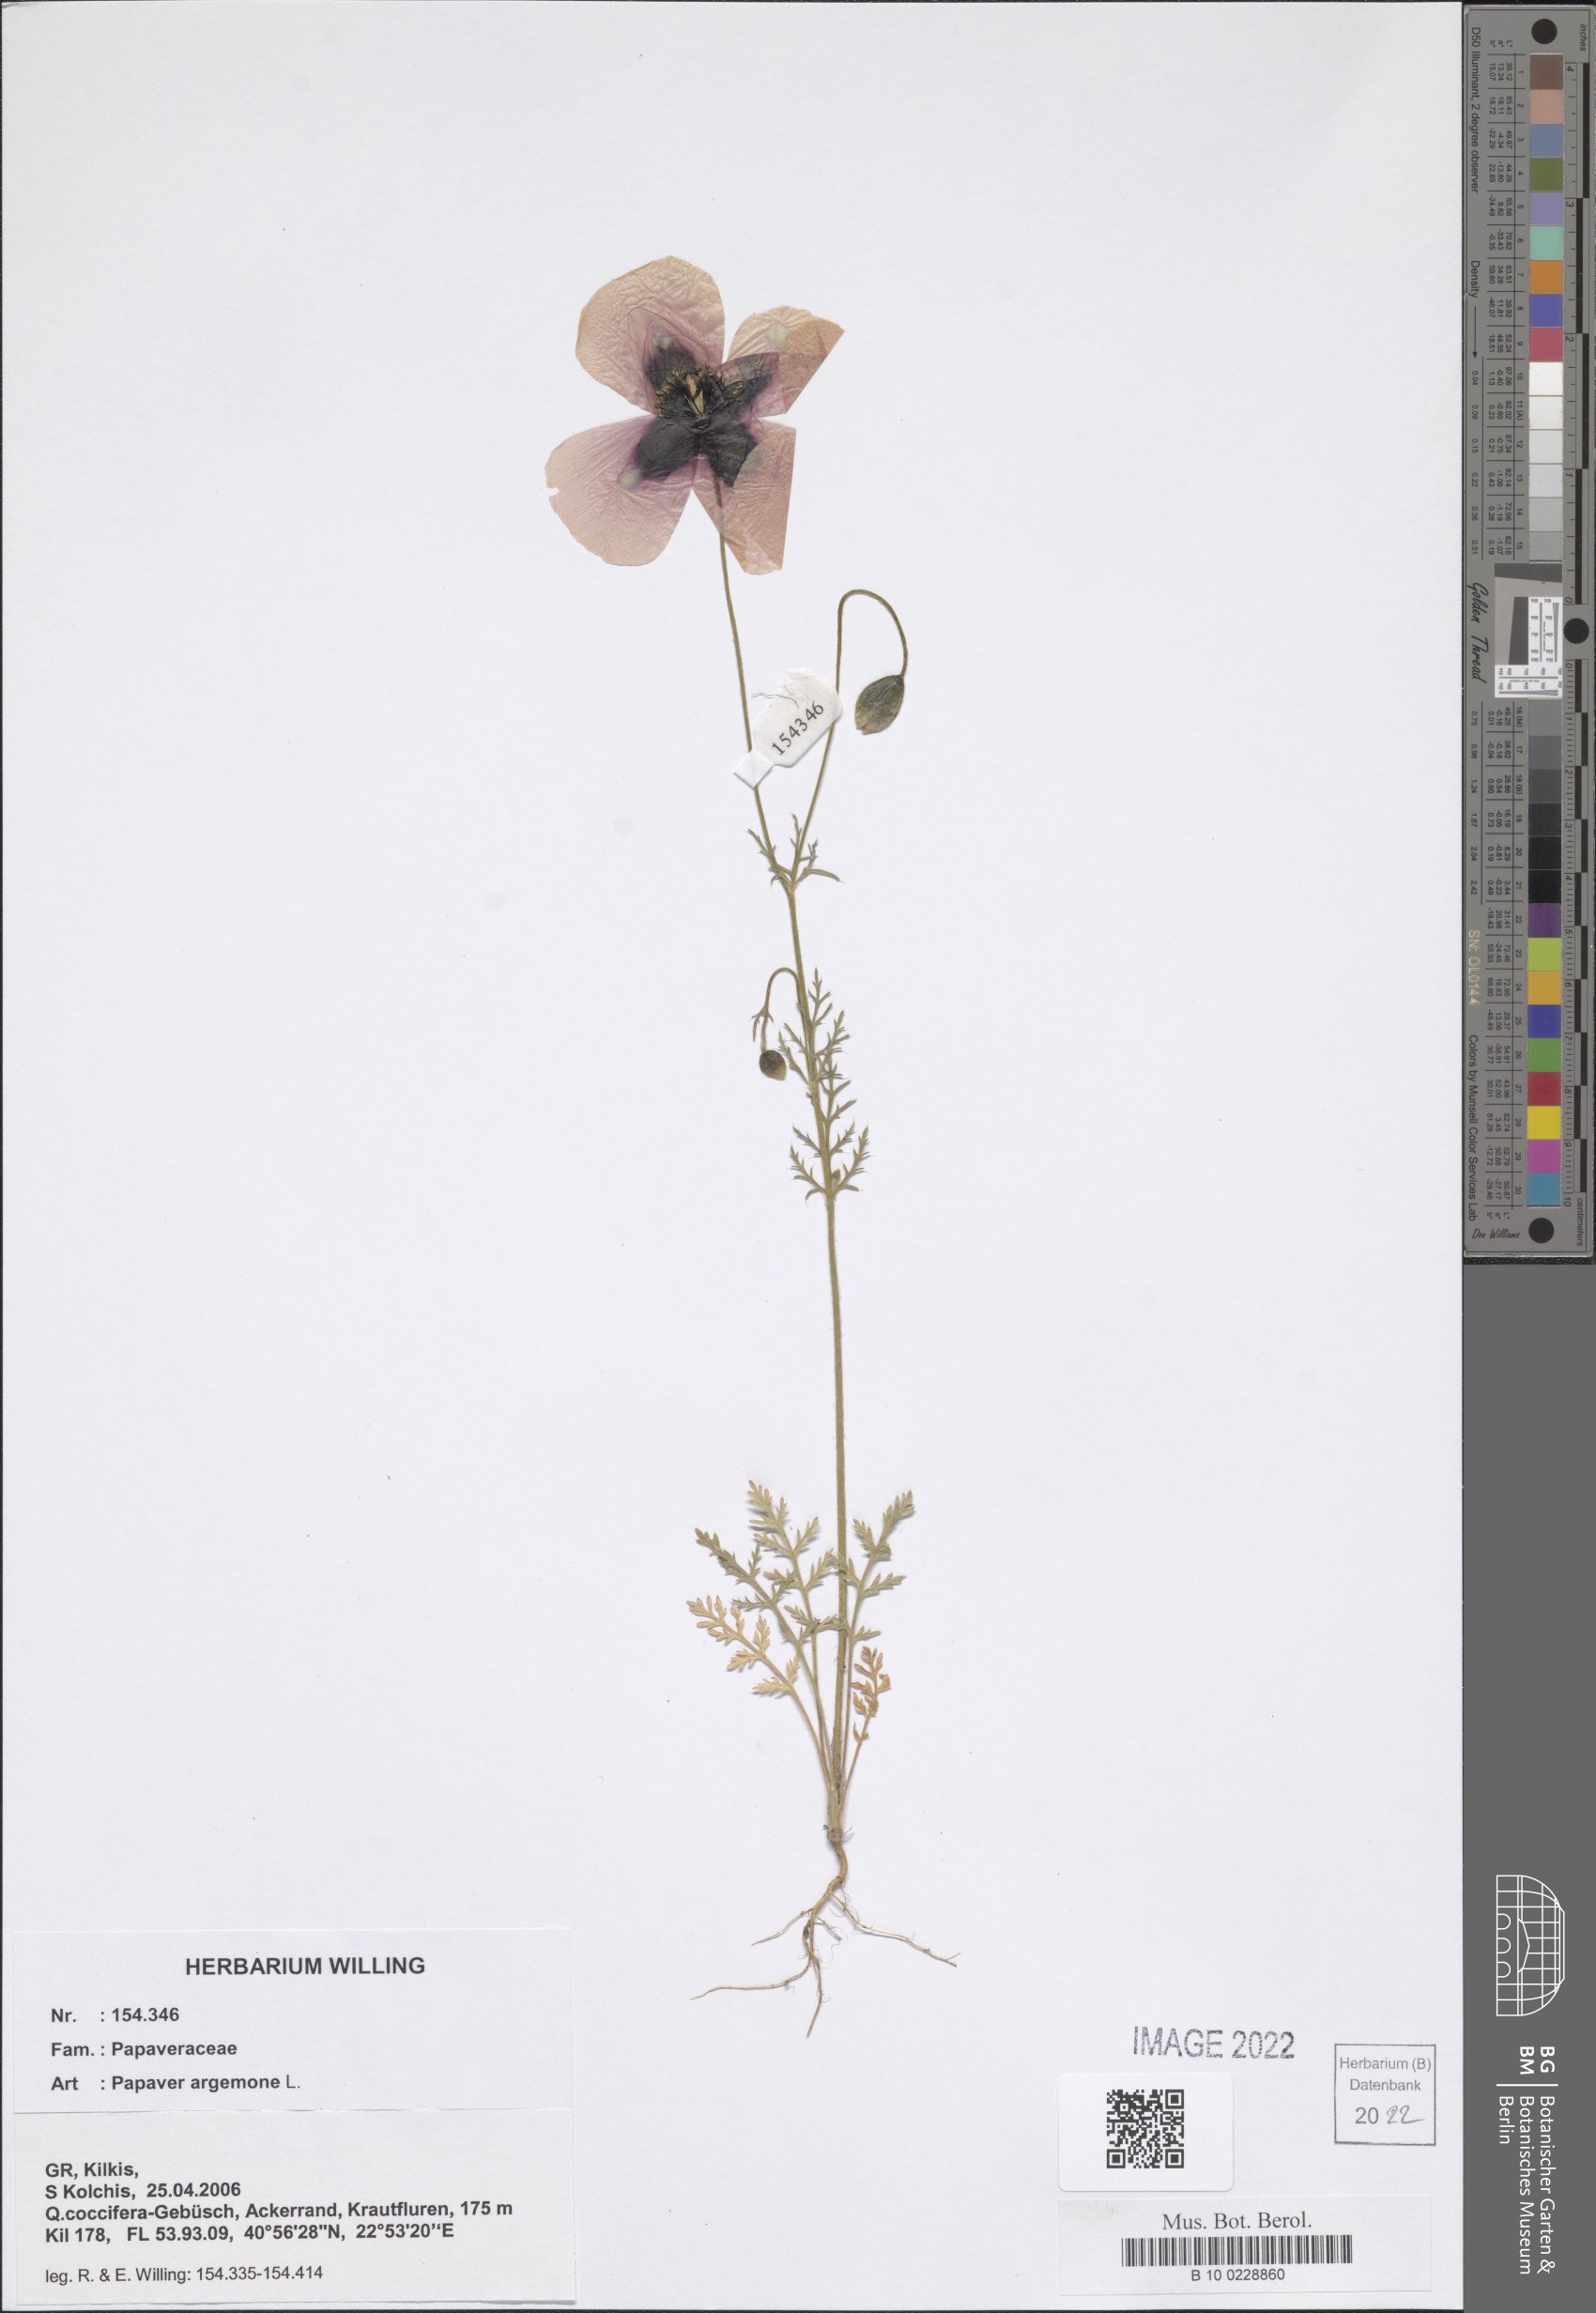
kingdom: Plantae
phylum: Tracheophyta
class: Magnoliopsida
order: Ranunculales
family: Papaveraceae
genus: Roemeria
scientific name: Roemeria argemone
